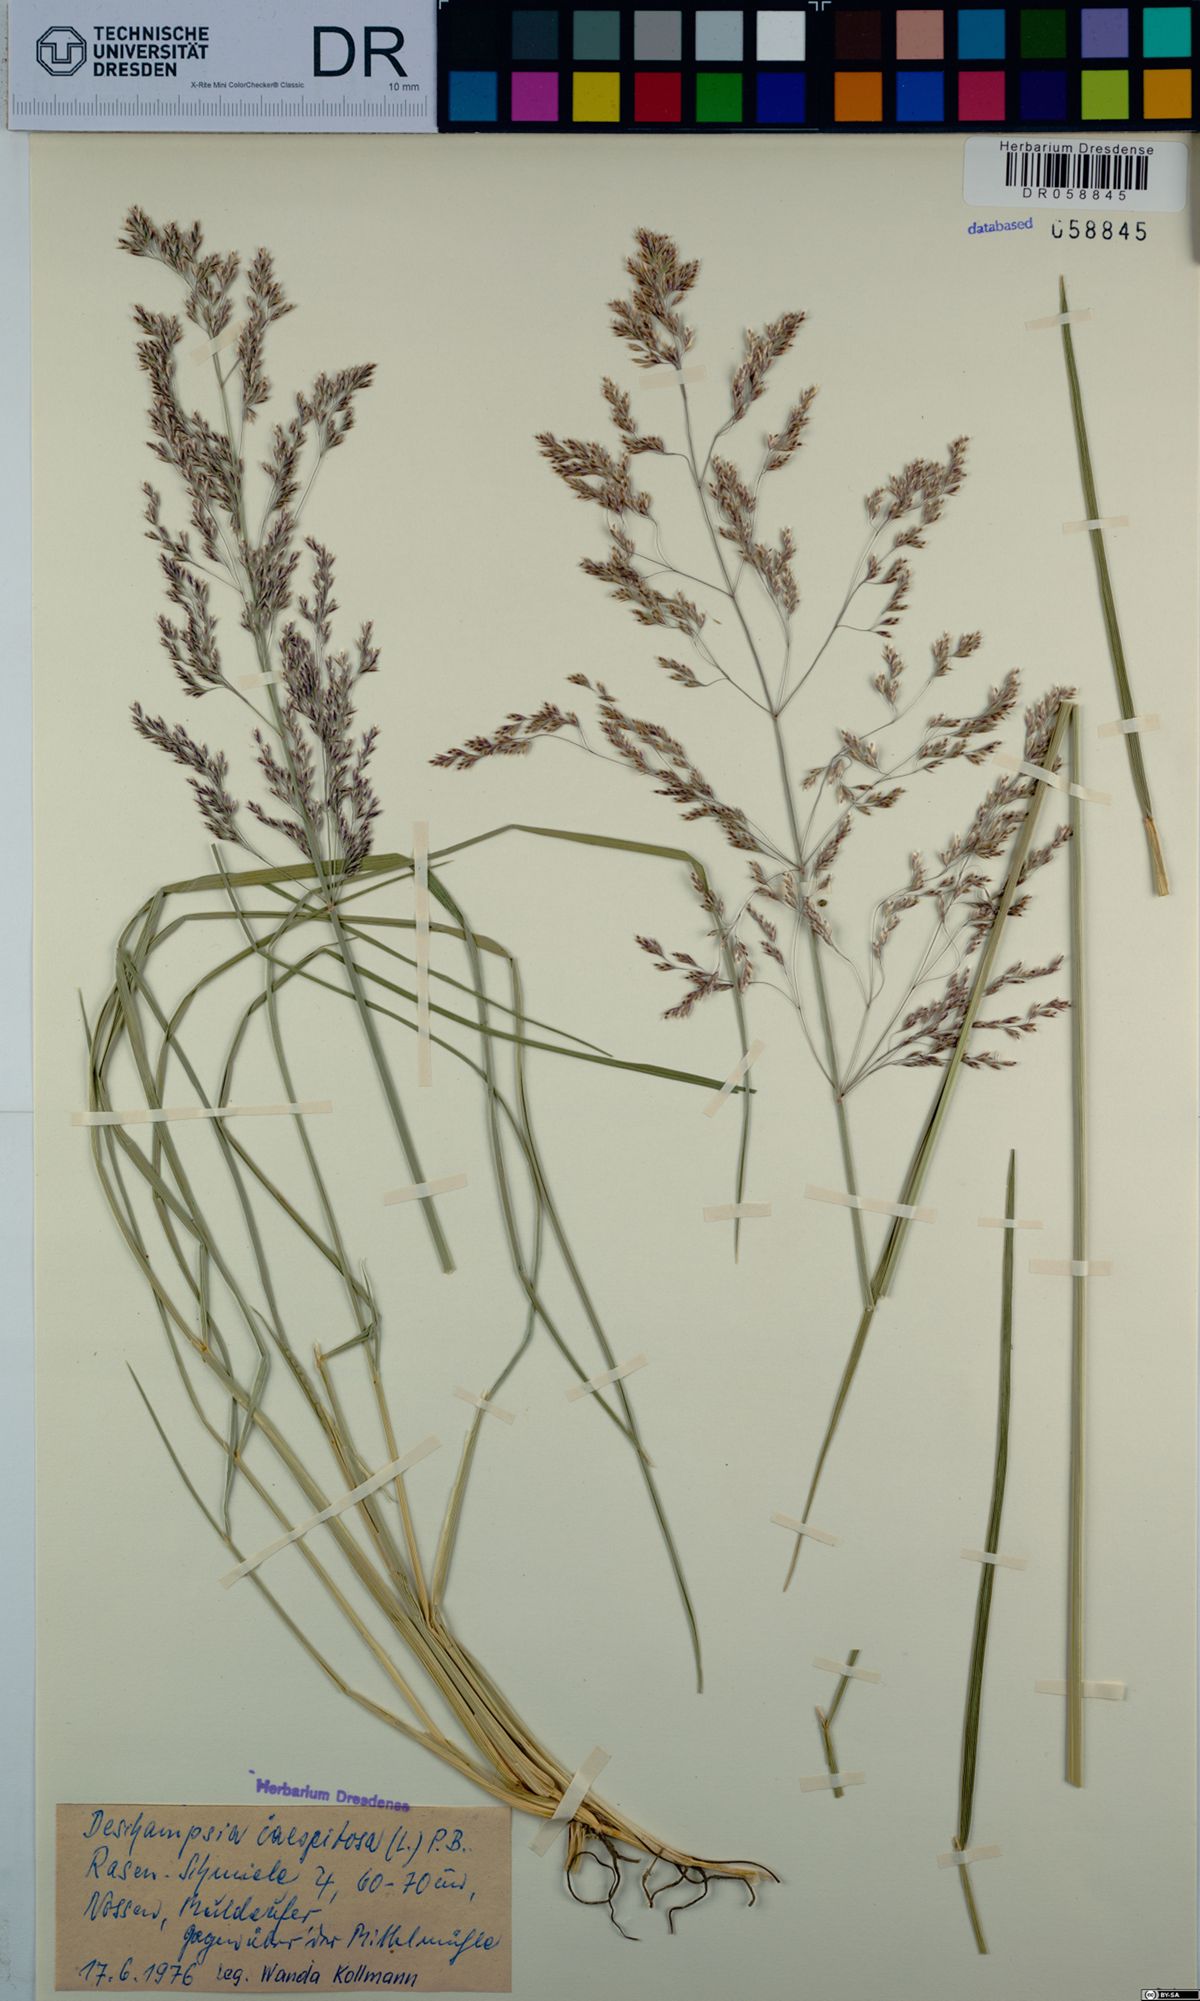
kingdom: Plantae
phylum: Tracheophyta
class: Liliopsida
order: Poales
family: Poaceae
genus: Deschampsia
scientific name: Deschampsia cespitosa
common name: Tufted hair-grass
